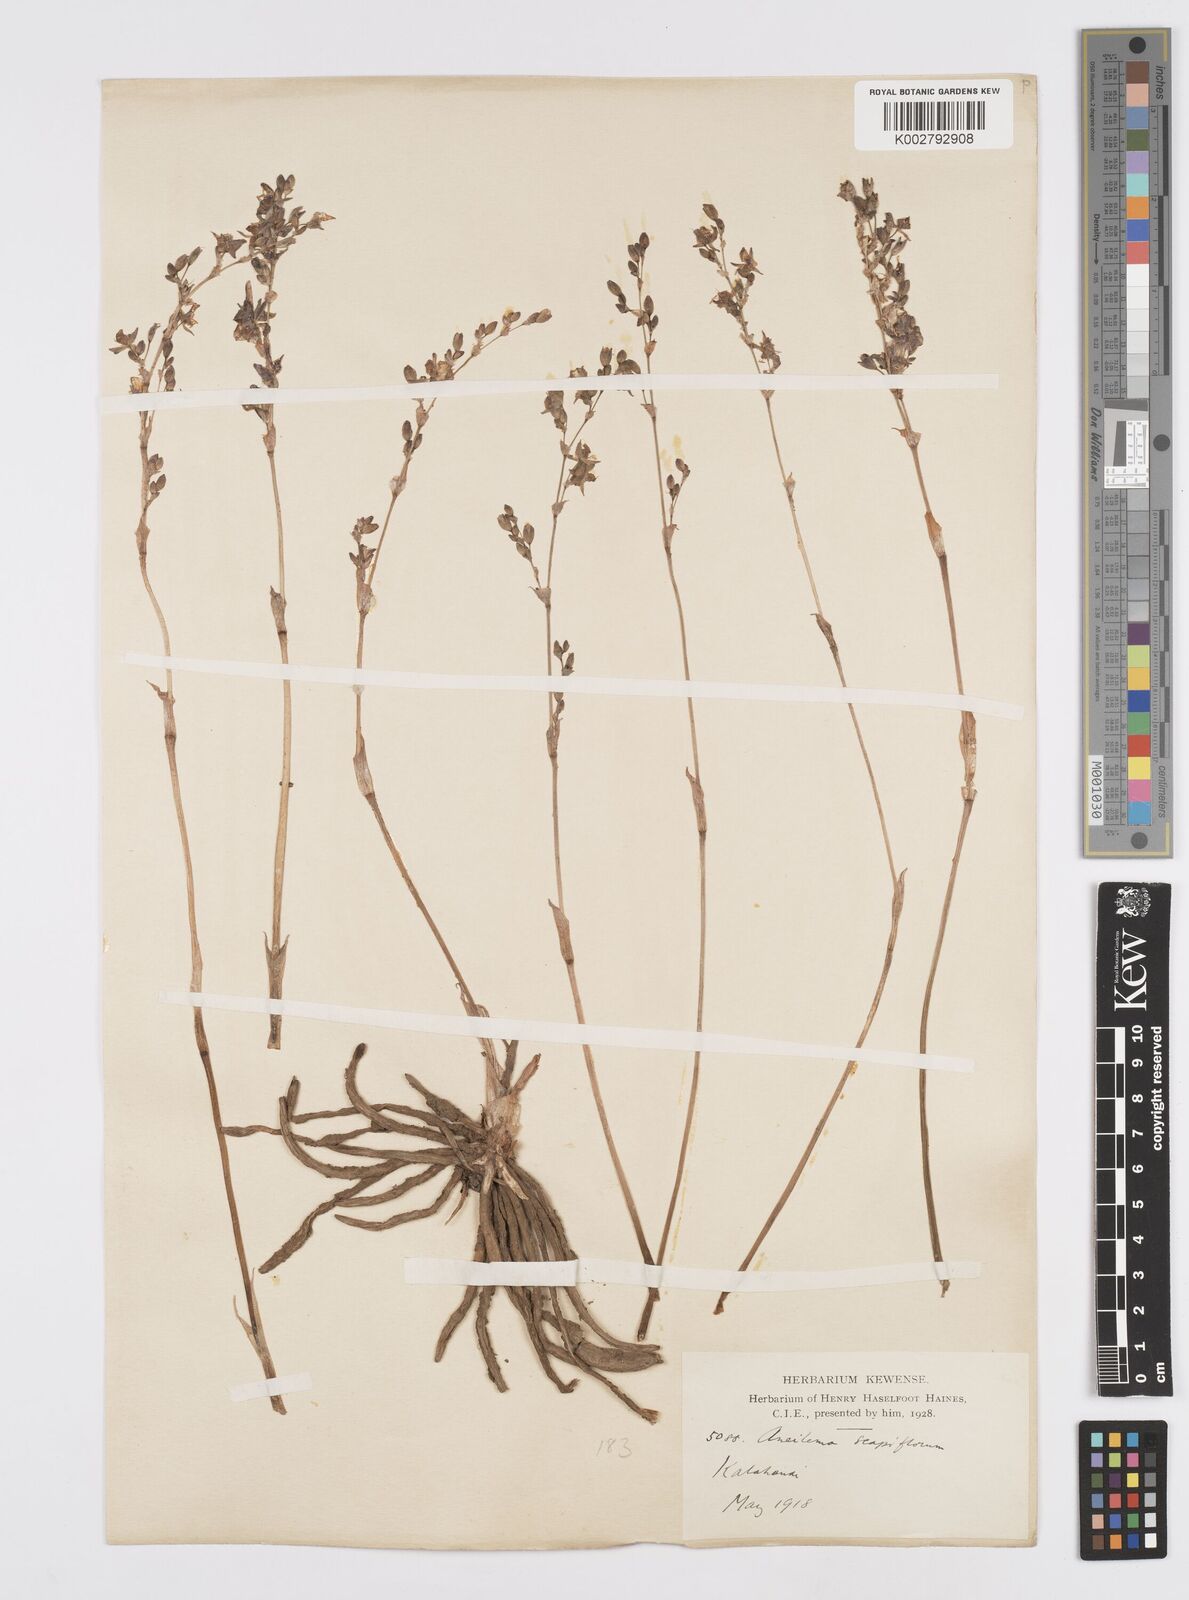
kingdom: Plantae
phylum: Tracheophyta
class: Liliopsida
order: Commelinales
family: Commelinaceae
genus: Murdannia
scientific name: Murdannia edulis
